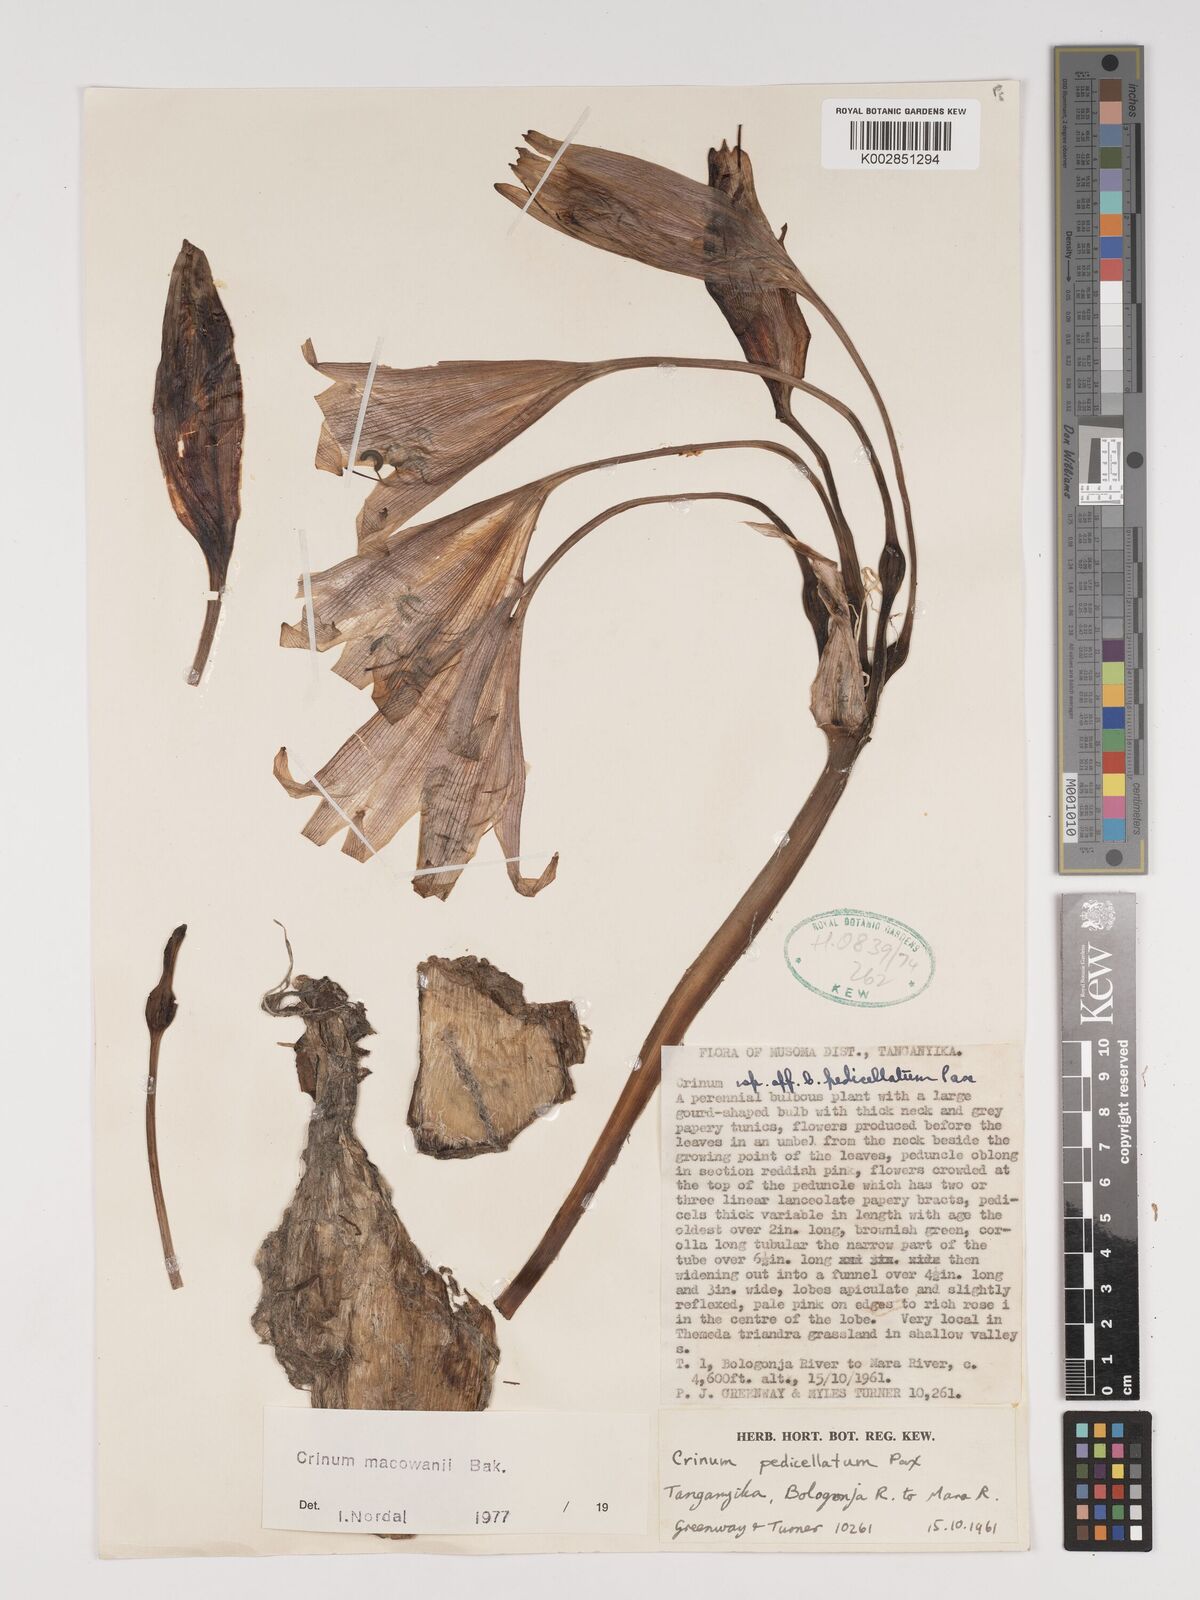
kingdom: Plantae
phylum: Tracheophyta
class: Liliopsida
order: Asparagales
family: Amaryllidaceae
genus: Crinum
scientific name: Crinum macowanii
